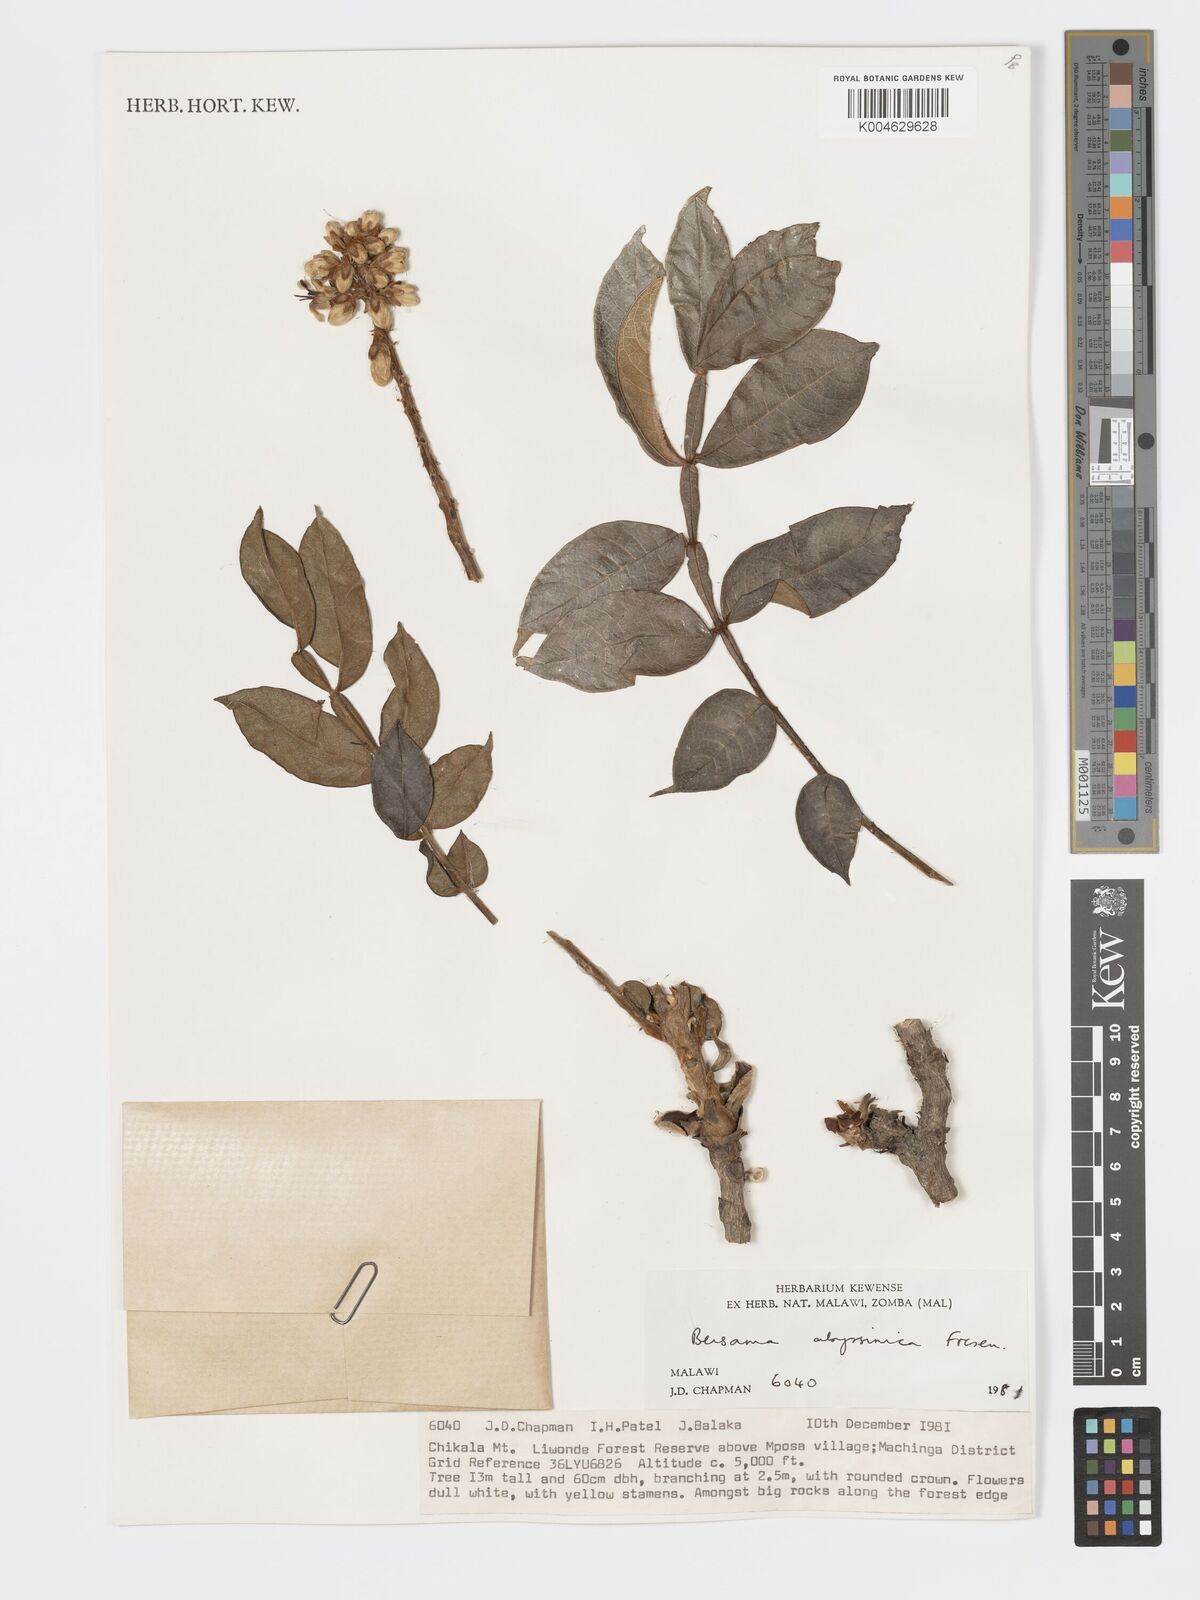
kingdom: Plantae
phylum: Tracheophyta
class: Magnoliopsida
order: Geraniales
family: Melianthaceae
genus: Bersama
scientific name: Bersama abyssinica
